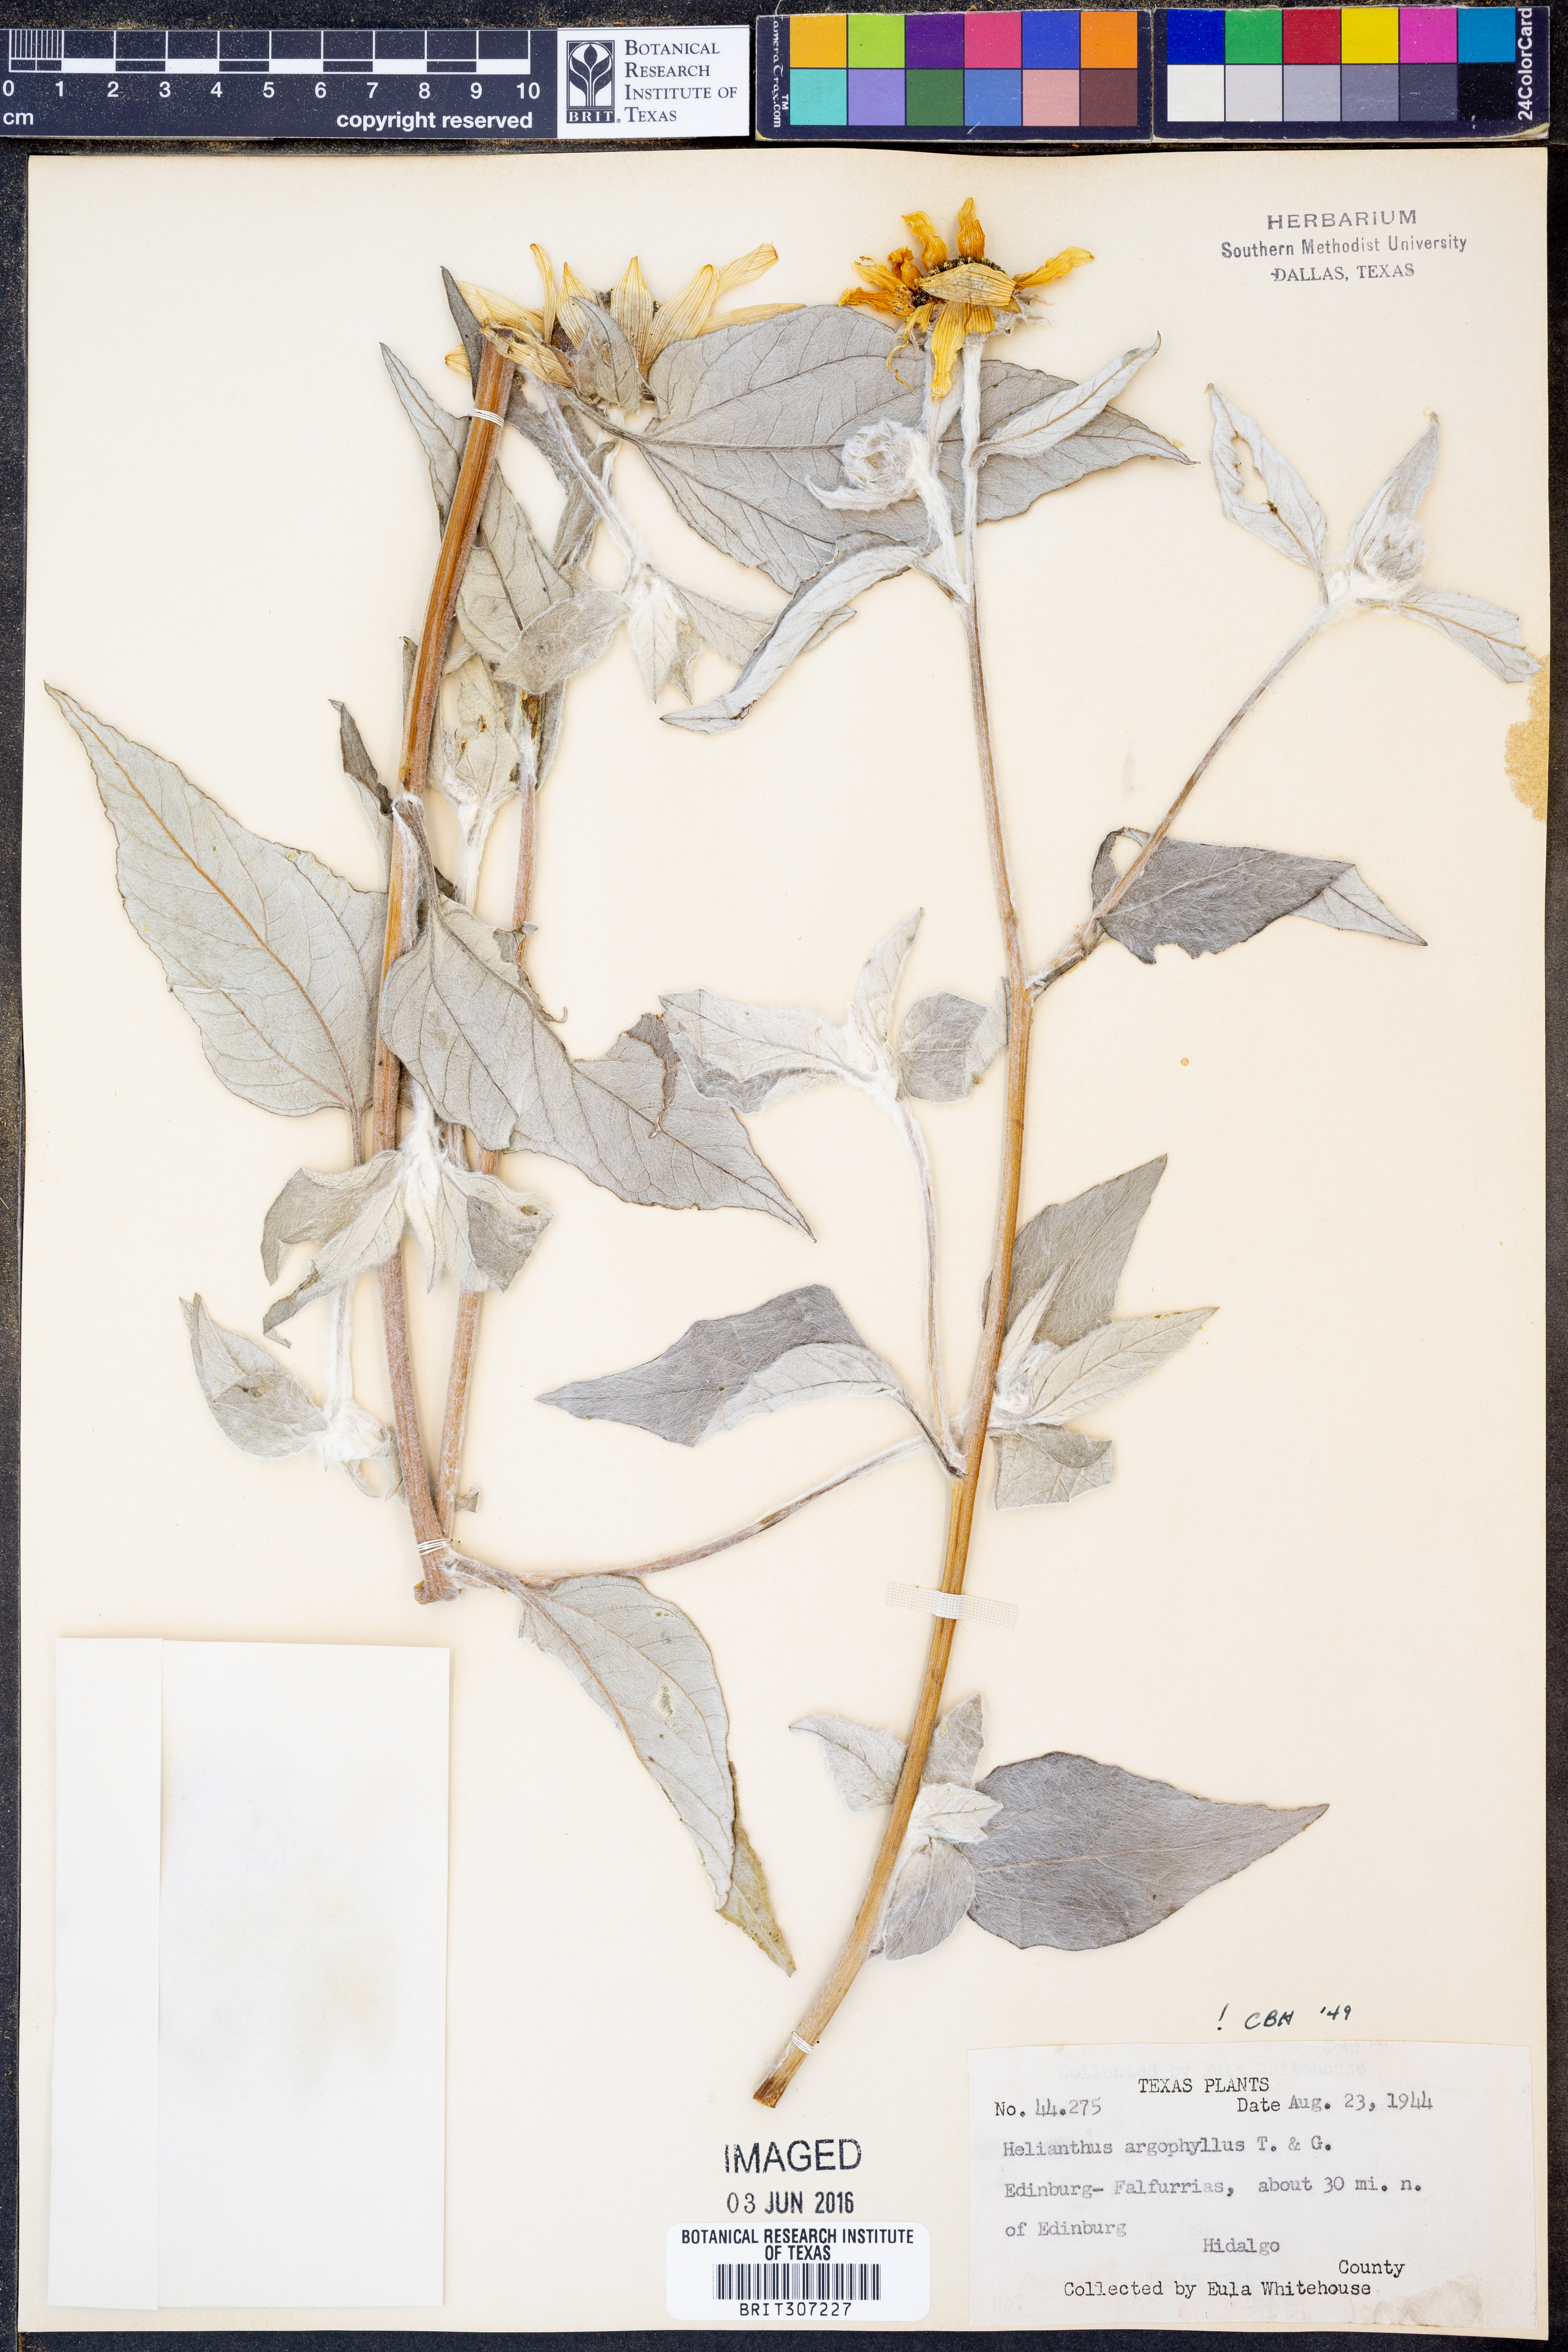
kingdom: Plantae
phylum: Tracheophyta
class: Magnoliopsida
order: Asterales
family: Asteraceae
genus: Helianthus
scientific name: Helianthus argophyllus
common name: Silverleaf sunflower
